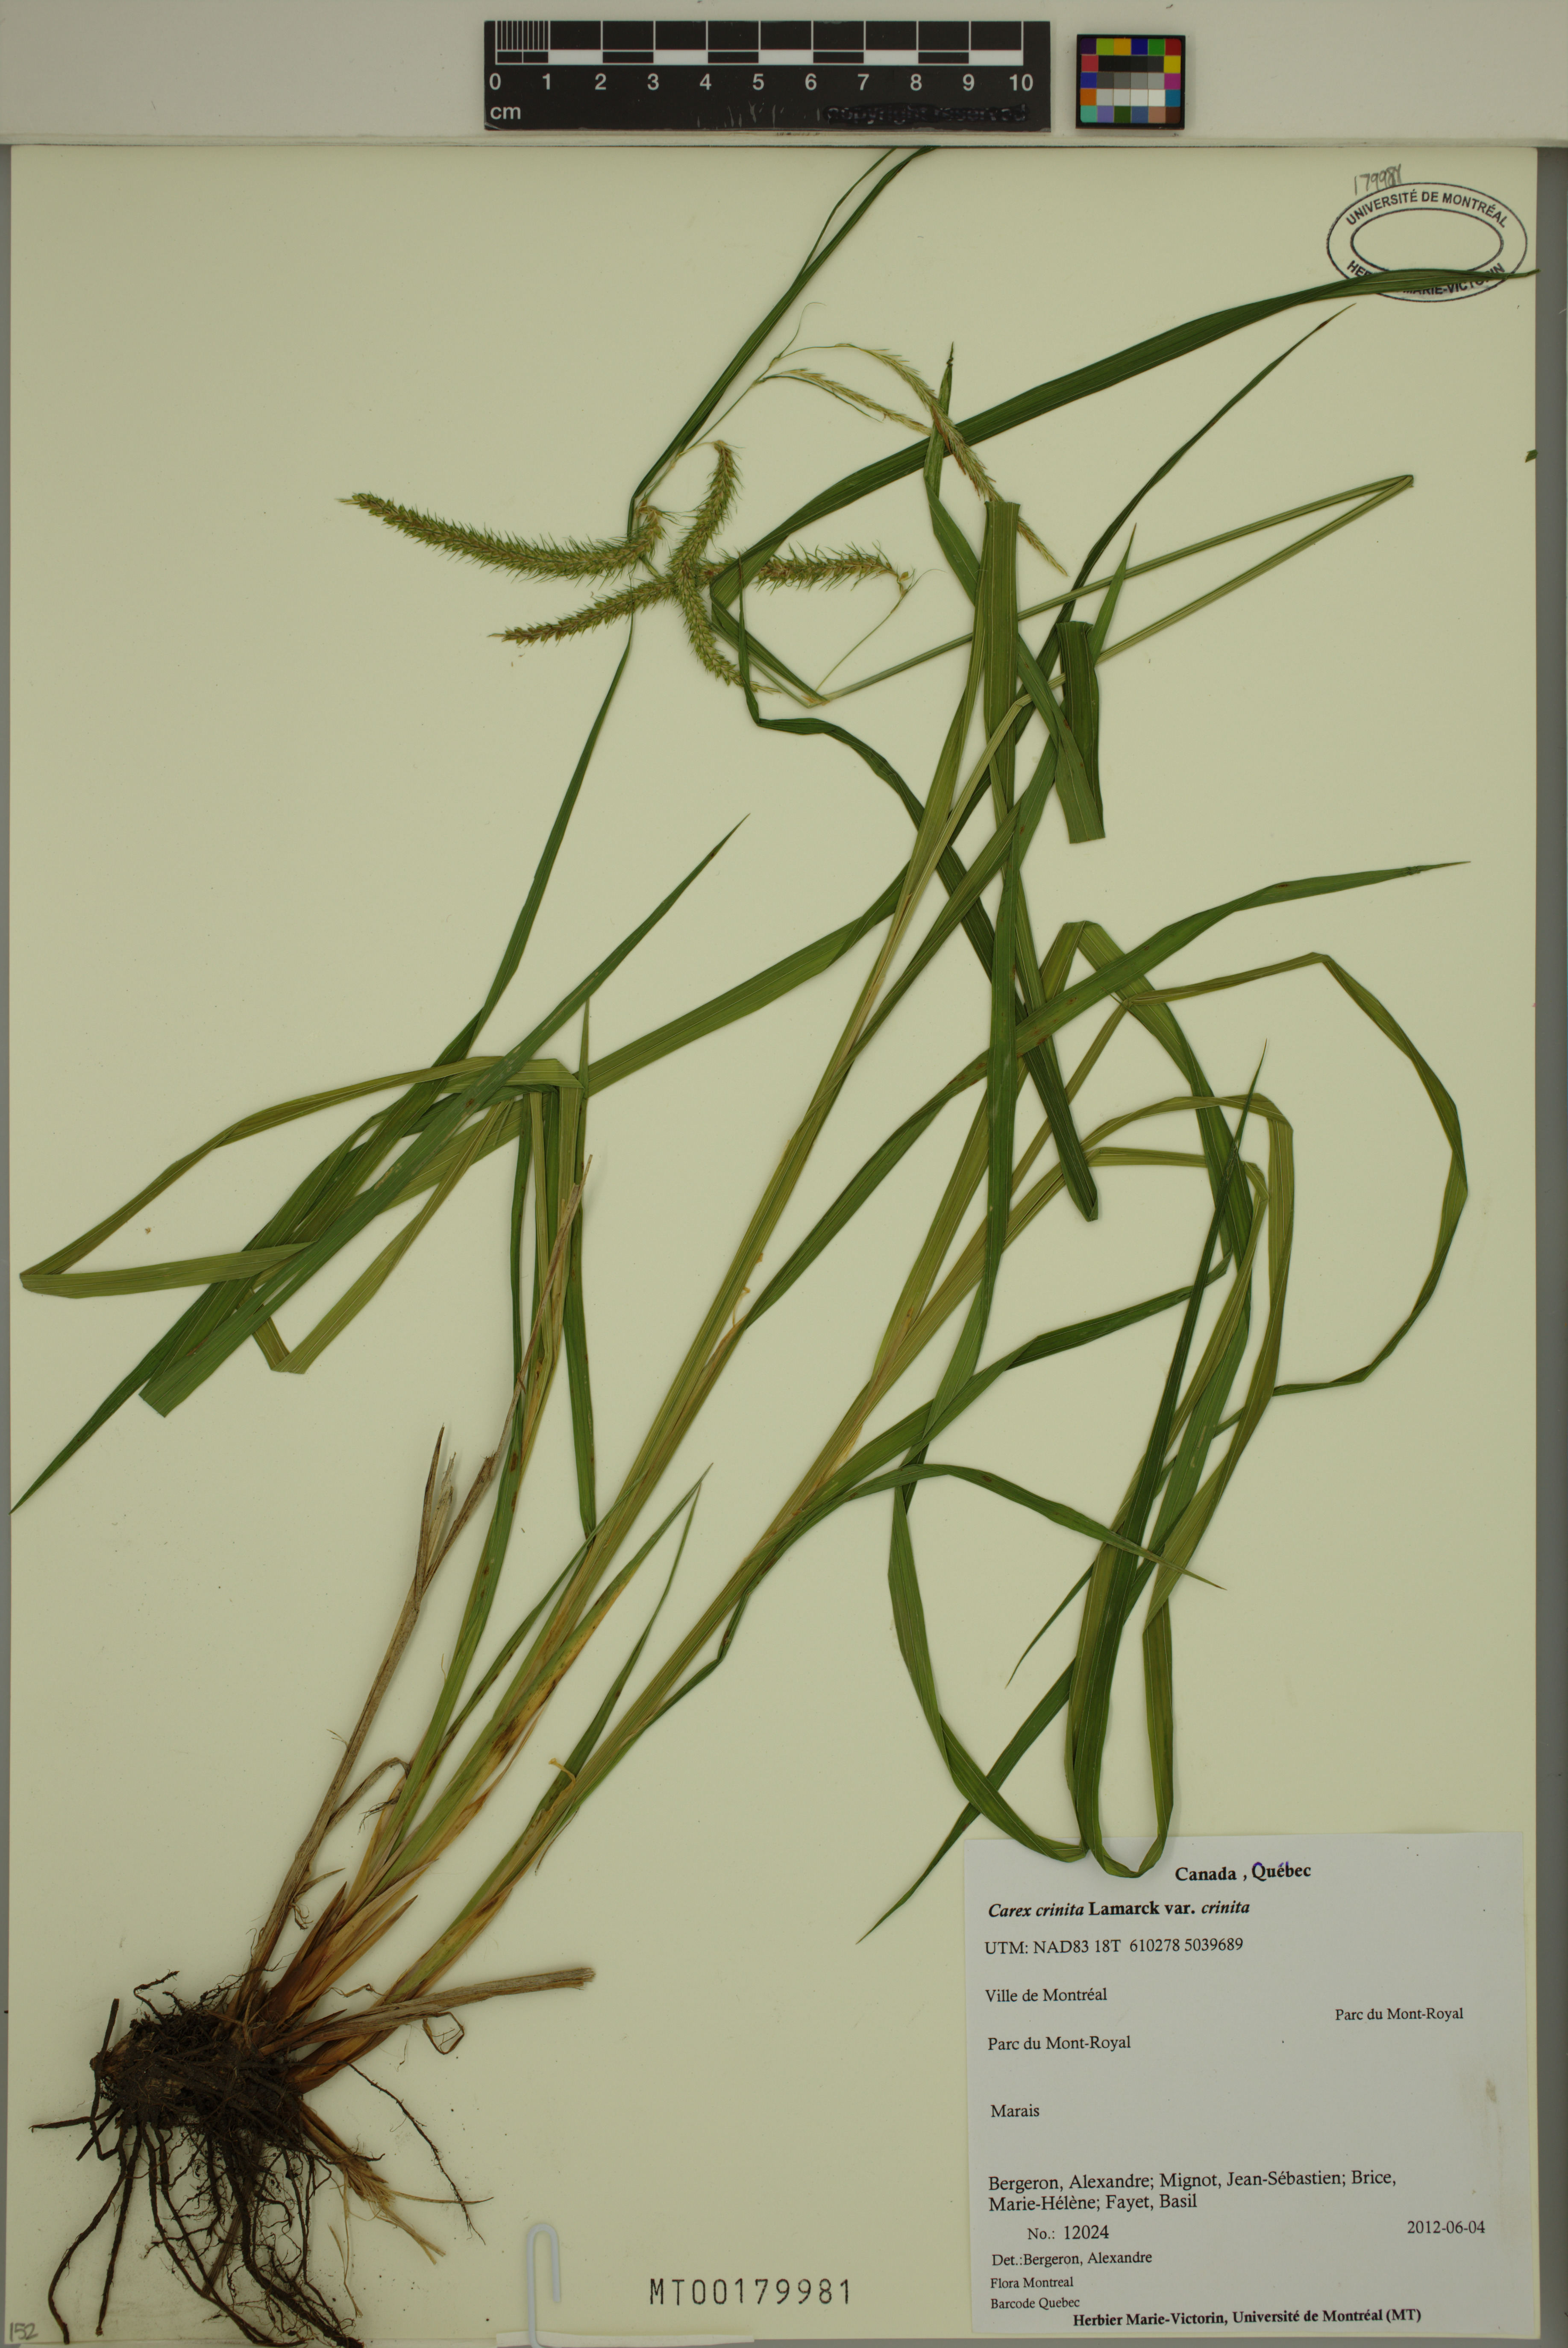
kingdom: Plantae
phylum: Tracheophyta
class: Liliopsida
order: Poales
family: Cyperaceae
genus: Carex
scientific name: Carex crinita
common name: Fringed sedge
